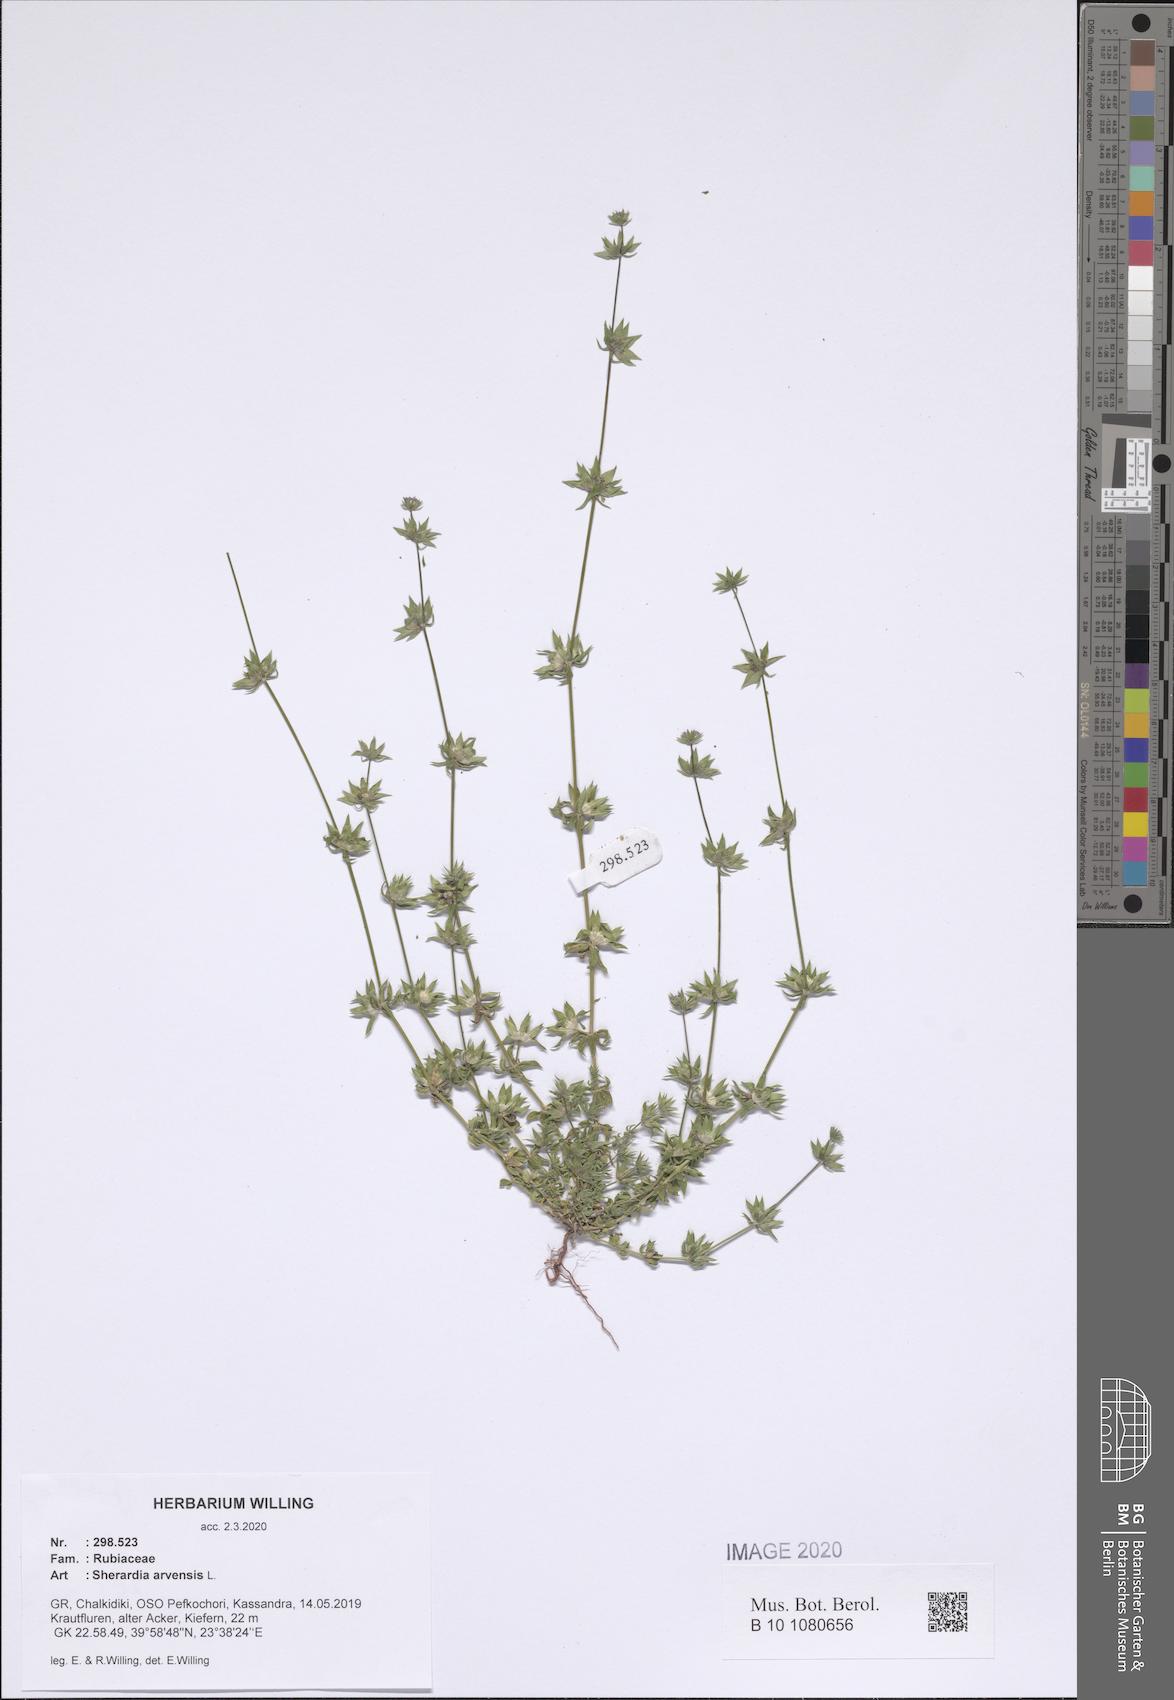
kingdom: Plantae
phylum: Tracheophyta
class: Magnoliopsida
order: Gentianales
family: Rubiaceae
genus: Sherardia
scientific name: Sherardia arvensis
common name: Field madder
